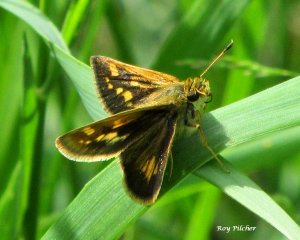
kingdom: Animalia
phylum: Arthropoda
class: Insecta
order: Lepidoptera
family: Hesperiidae
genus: Polites
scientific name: Polites
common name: Long Dash Skipper
